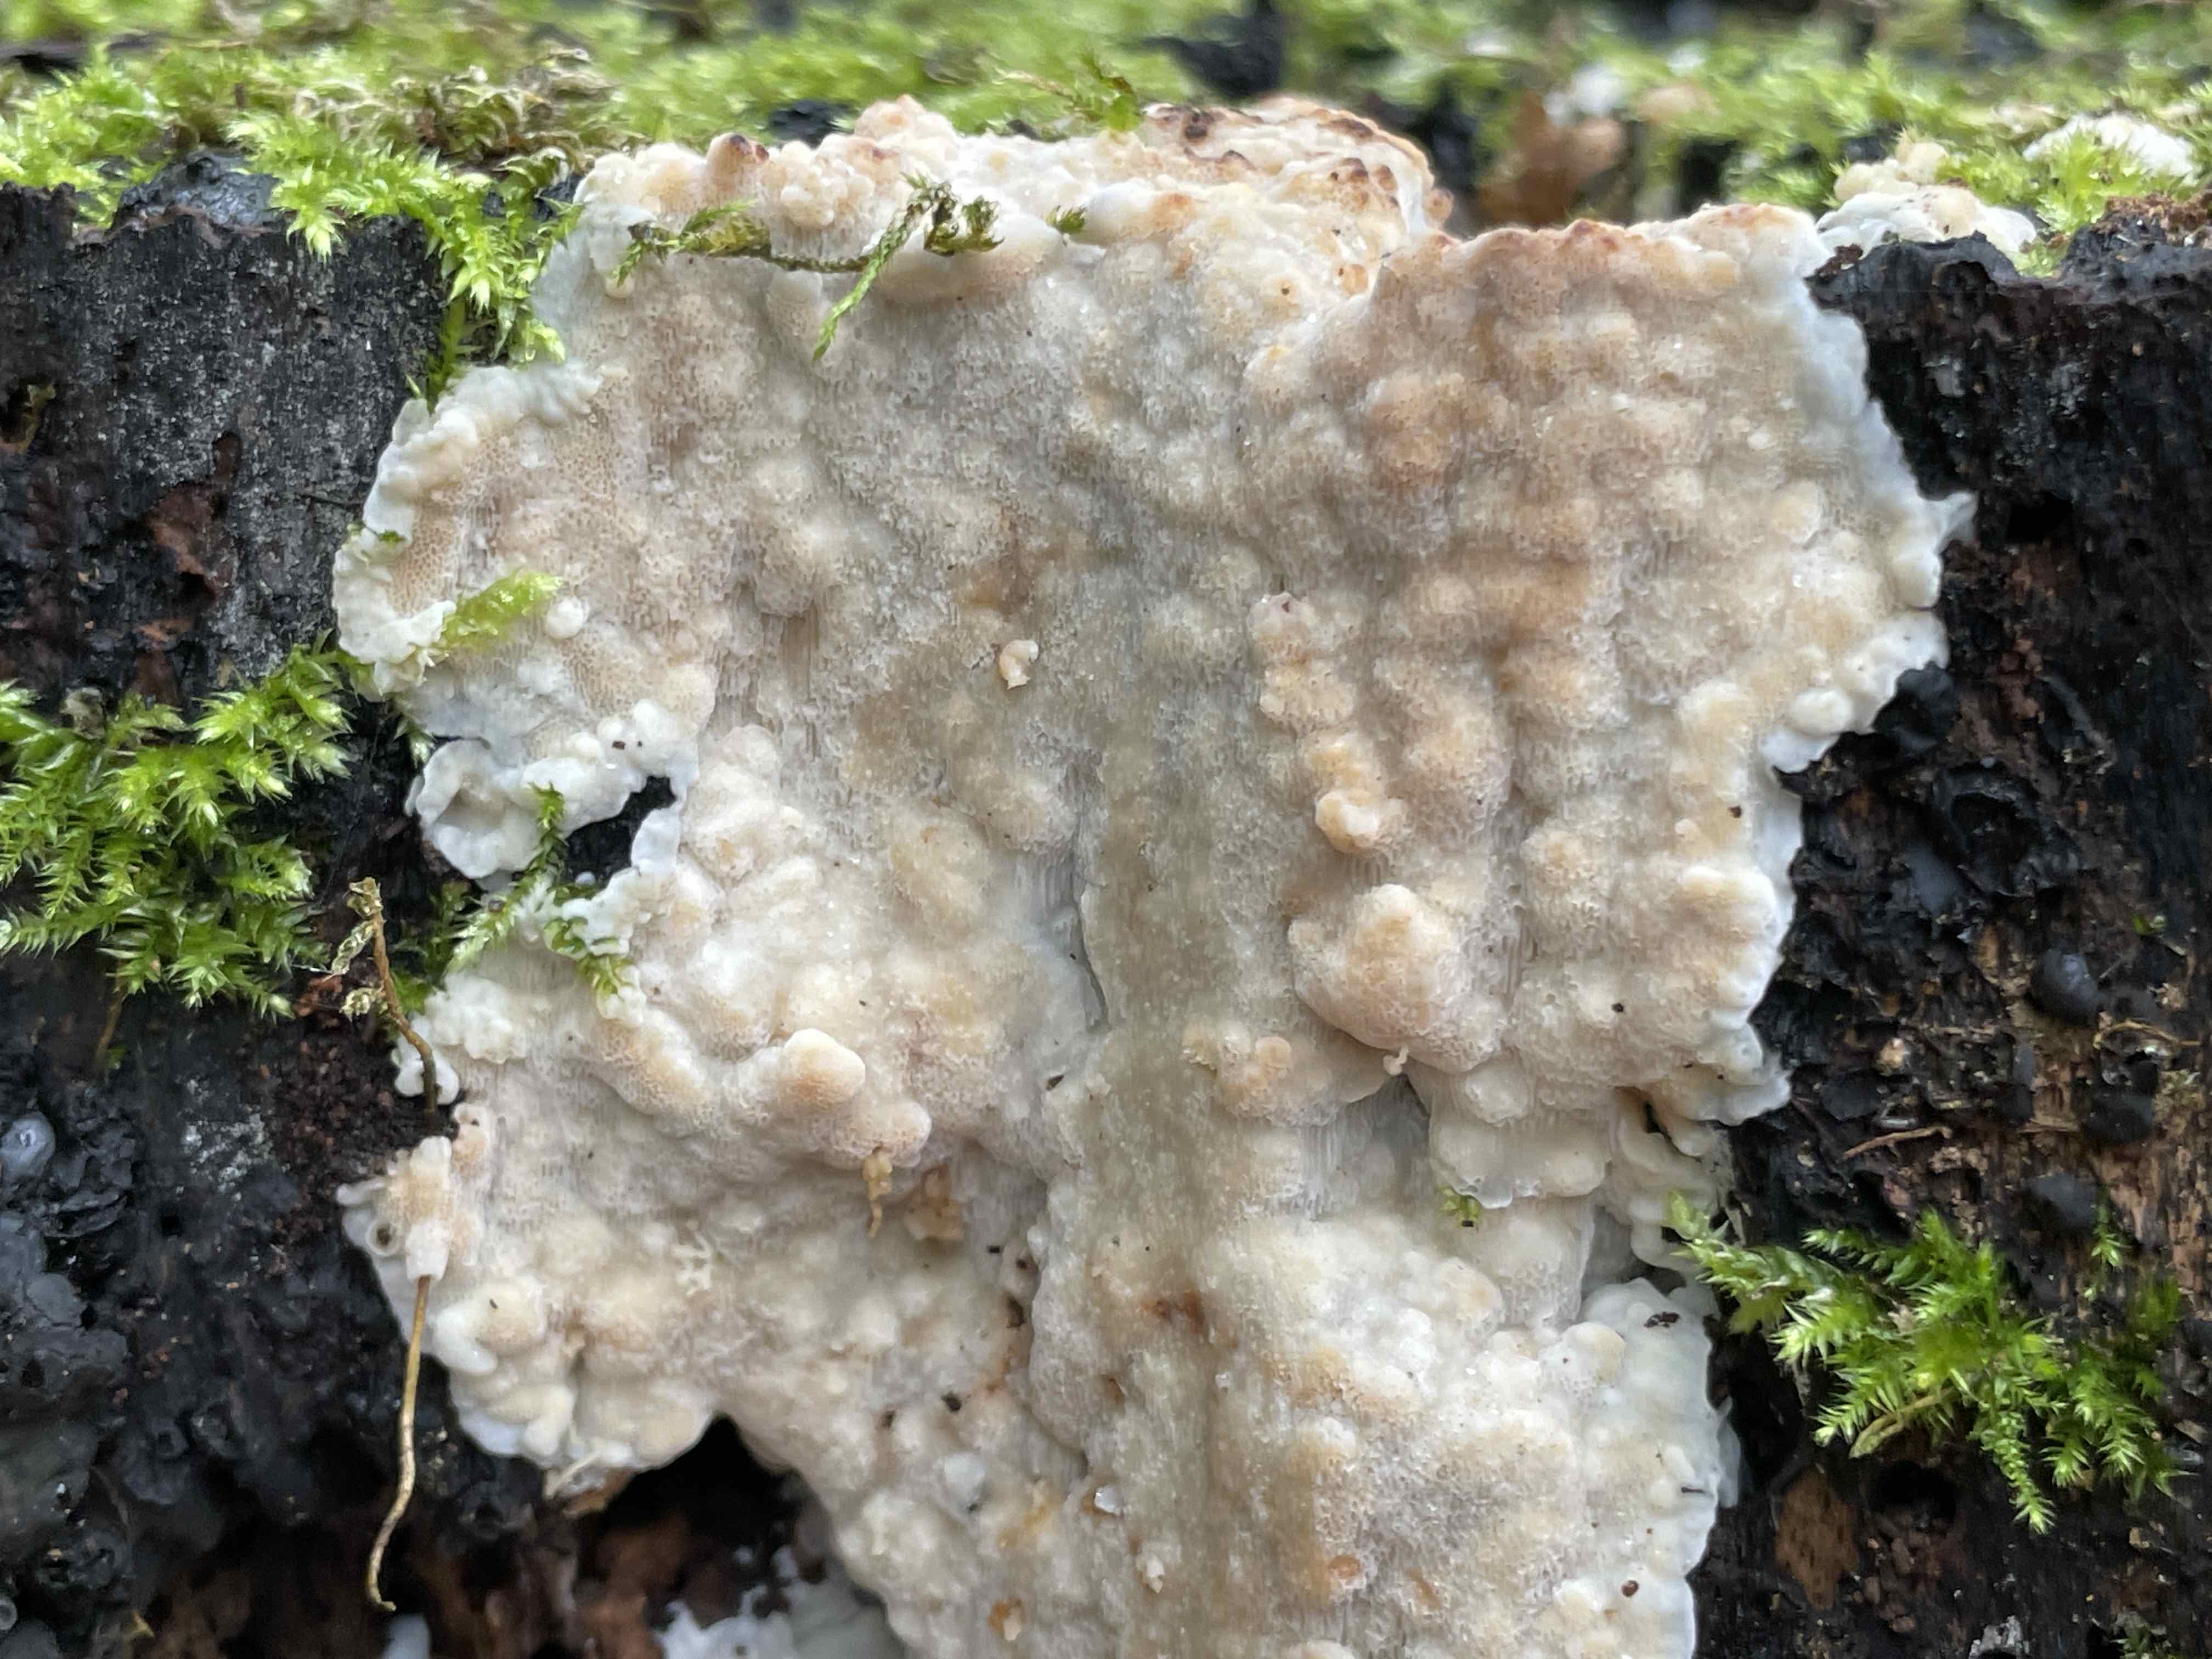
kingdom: Fungi
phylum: Basidiomycota
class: Agaricomycetes
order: Polyporales
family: Meruliaceae
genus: Physisporinus
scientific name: Physisporinus vitreus
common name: mastesvamp
